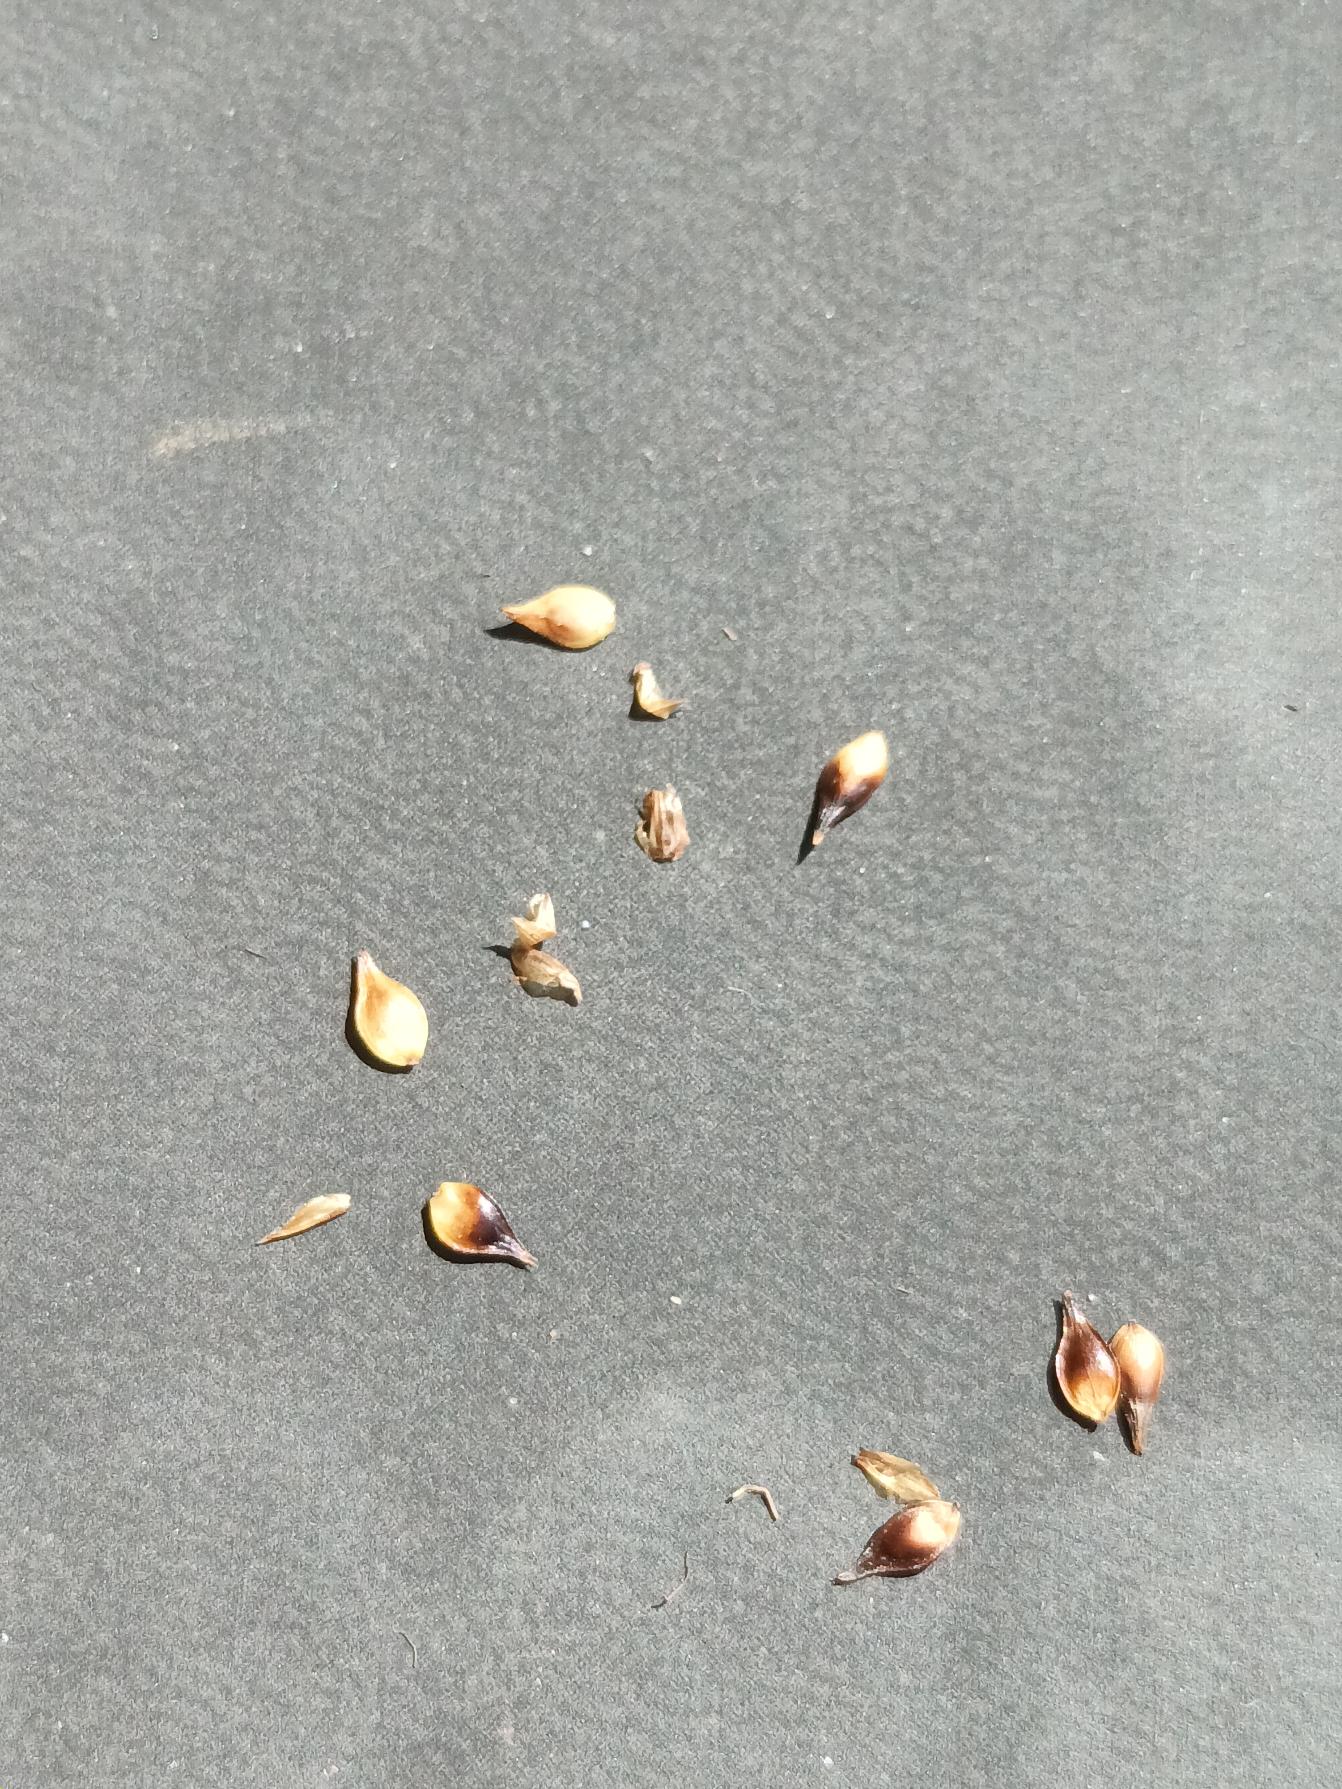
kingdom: Plantae
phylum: Tracheophyta
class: Liliopsida
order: Poales
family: Cyperaceae
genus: Carex
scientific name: Carex pairae
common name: Pigget star
